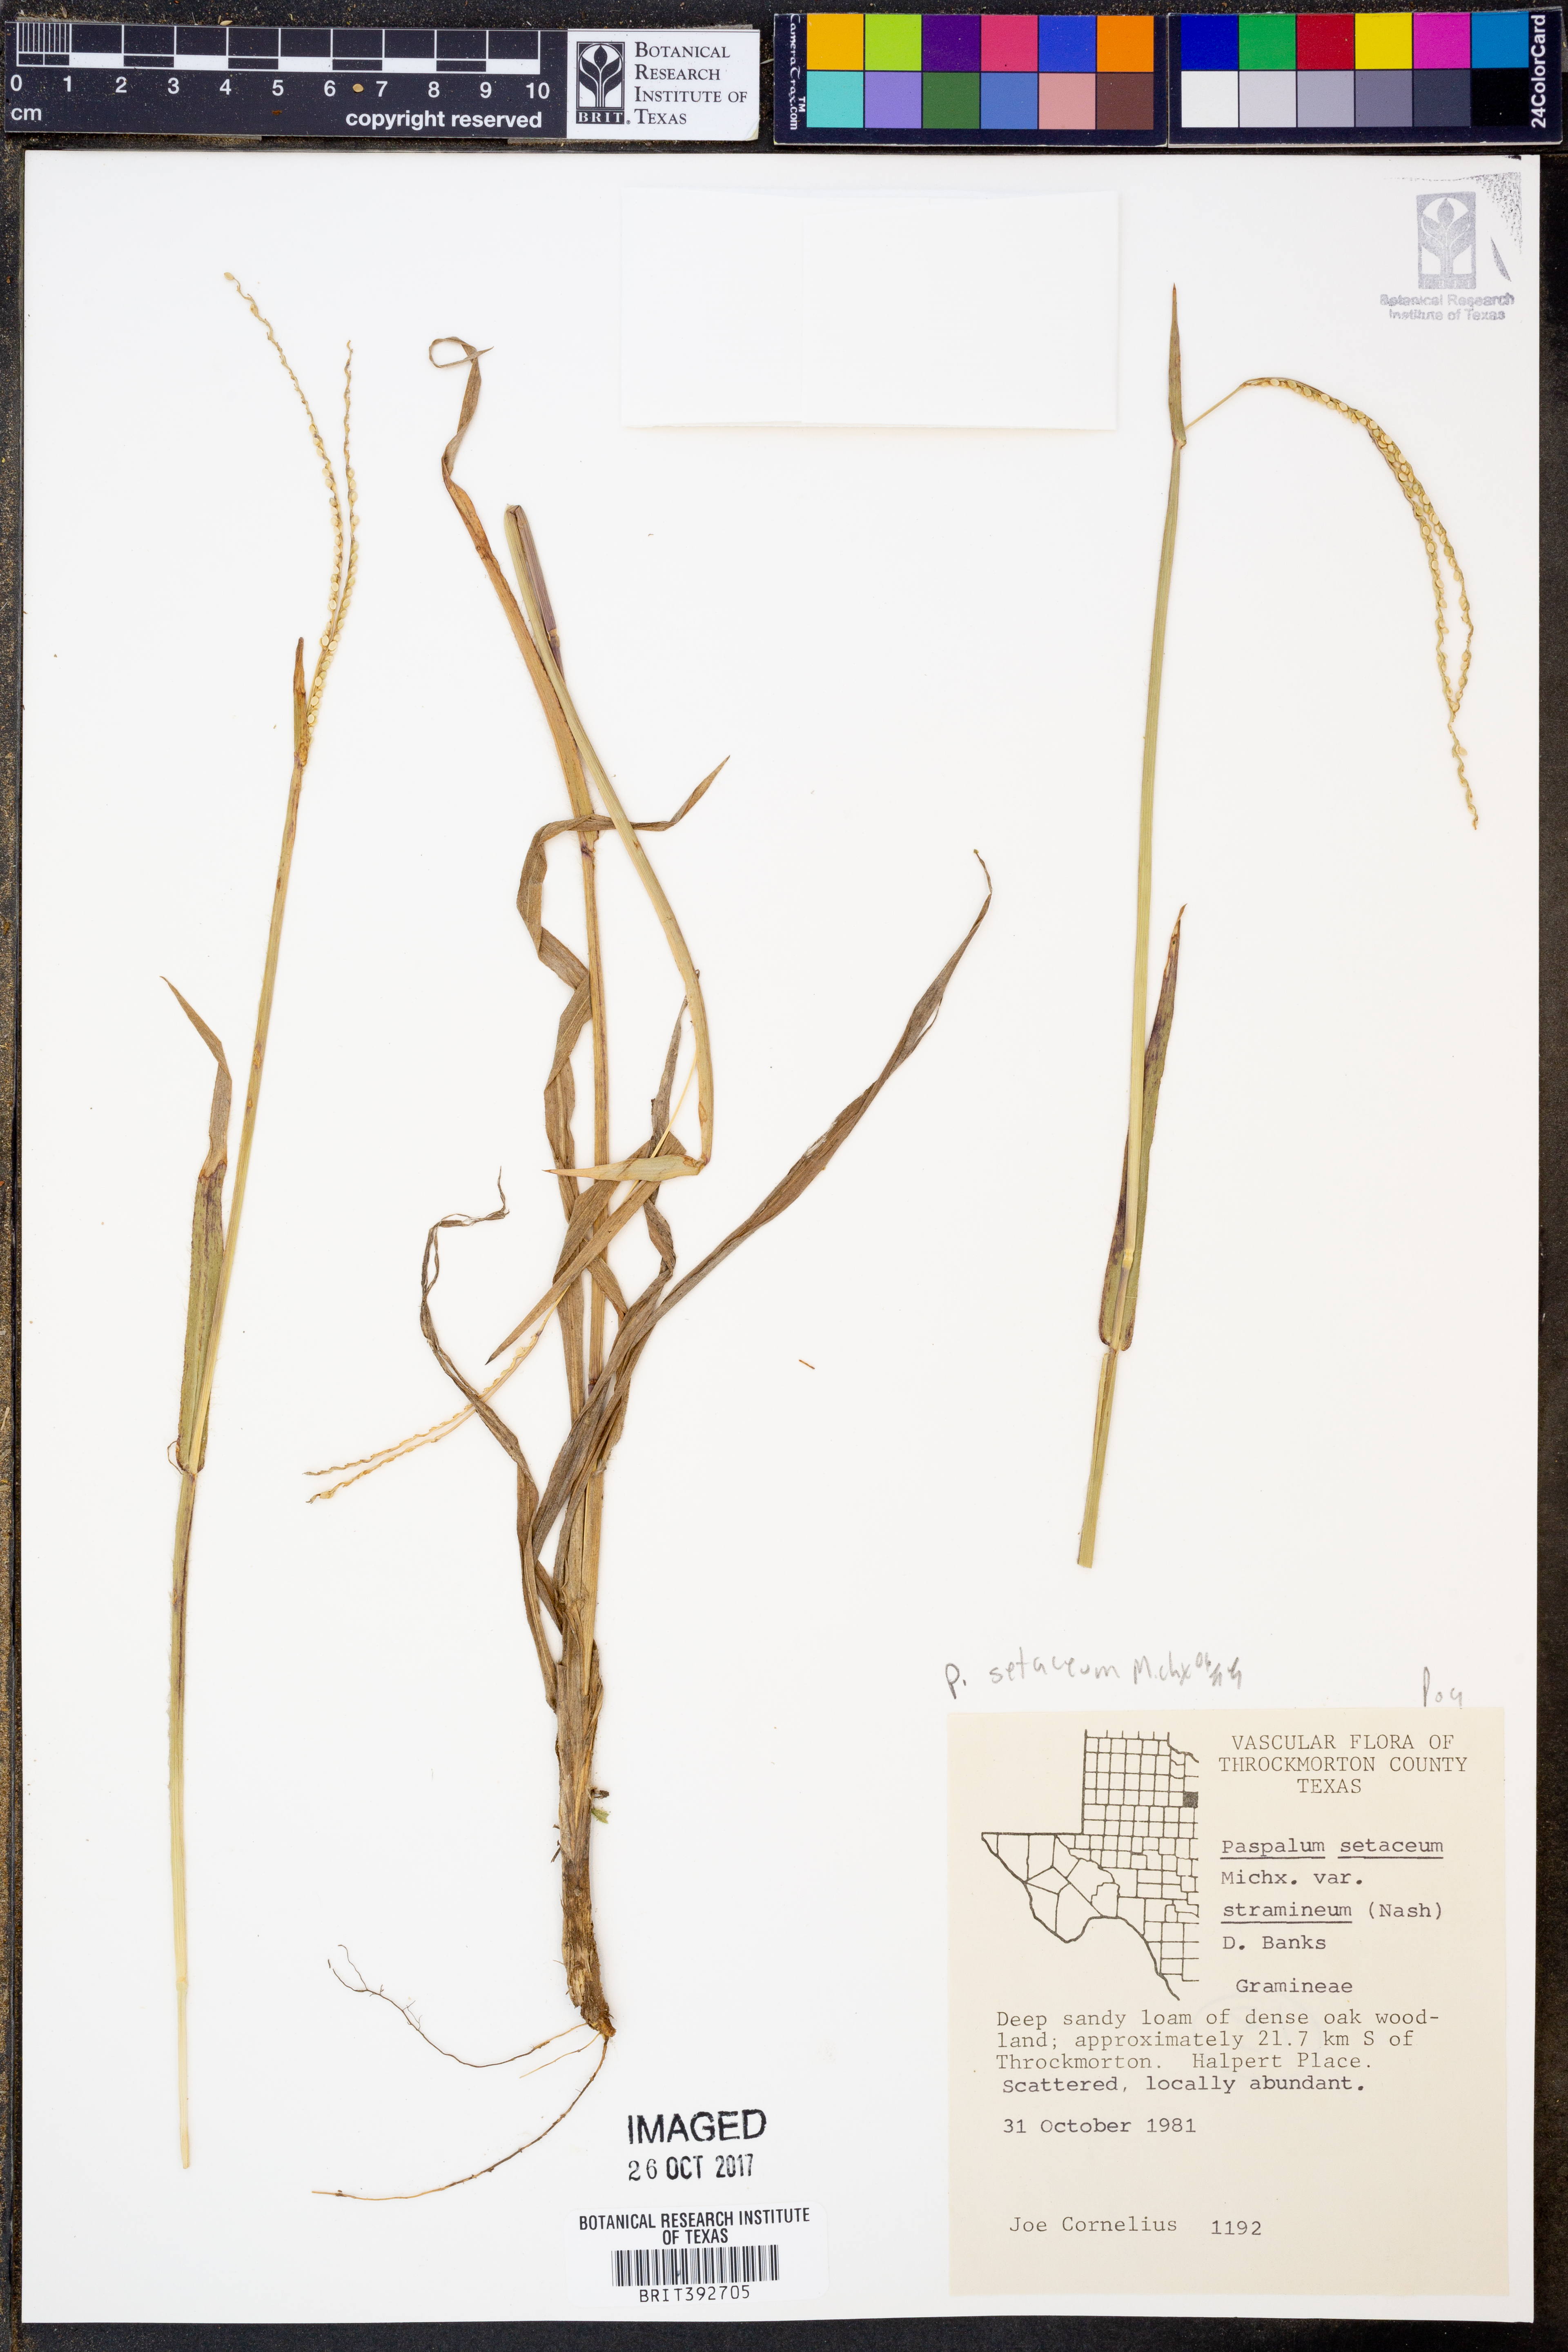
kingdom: Plantae
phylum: Tracheophyta
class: Liliopsida
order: Poales
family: Poaceae
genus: Paspalum
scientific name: Paspalum setaceum
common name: Slender paspalum
